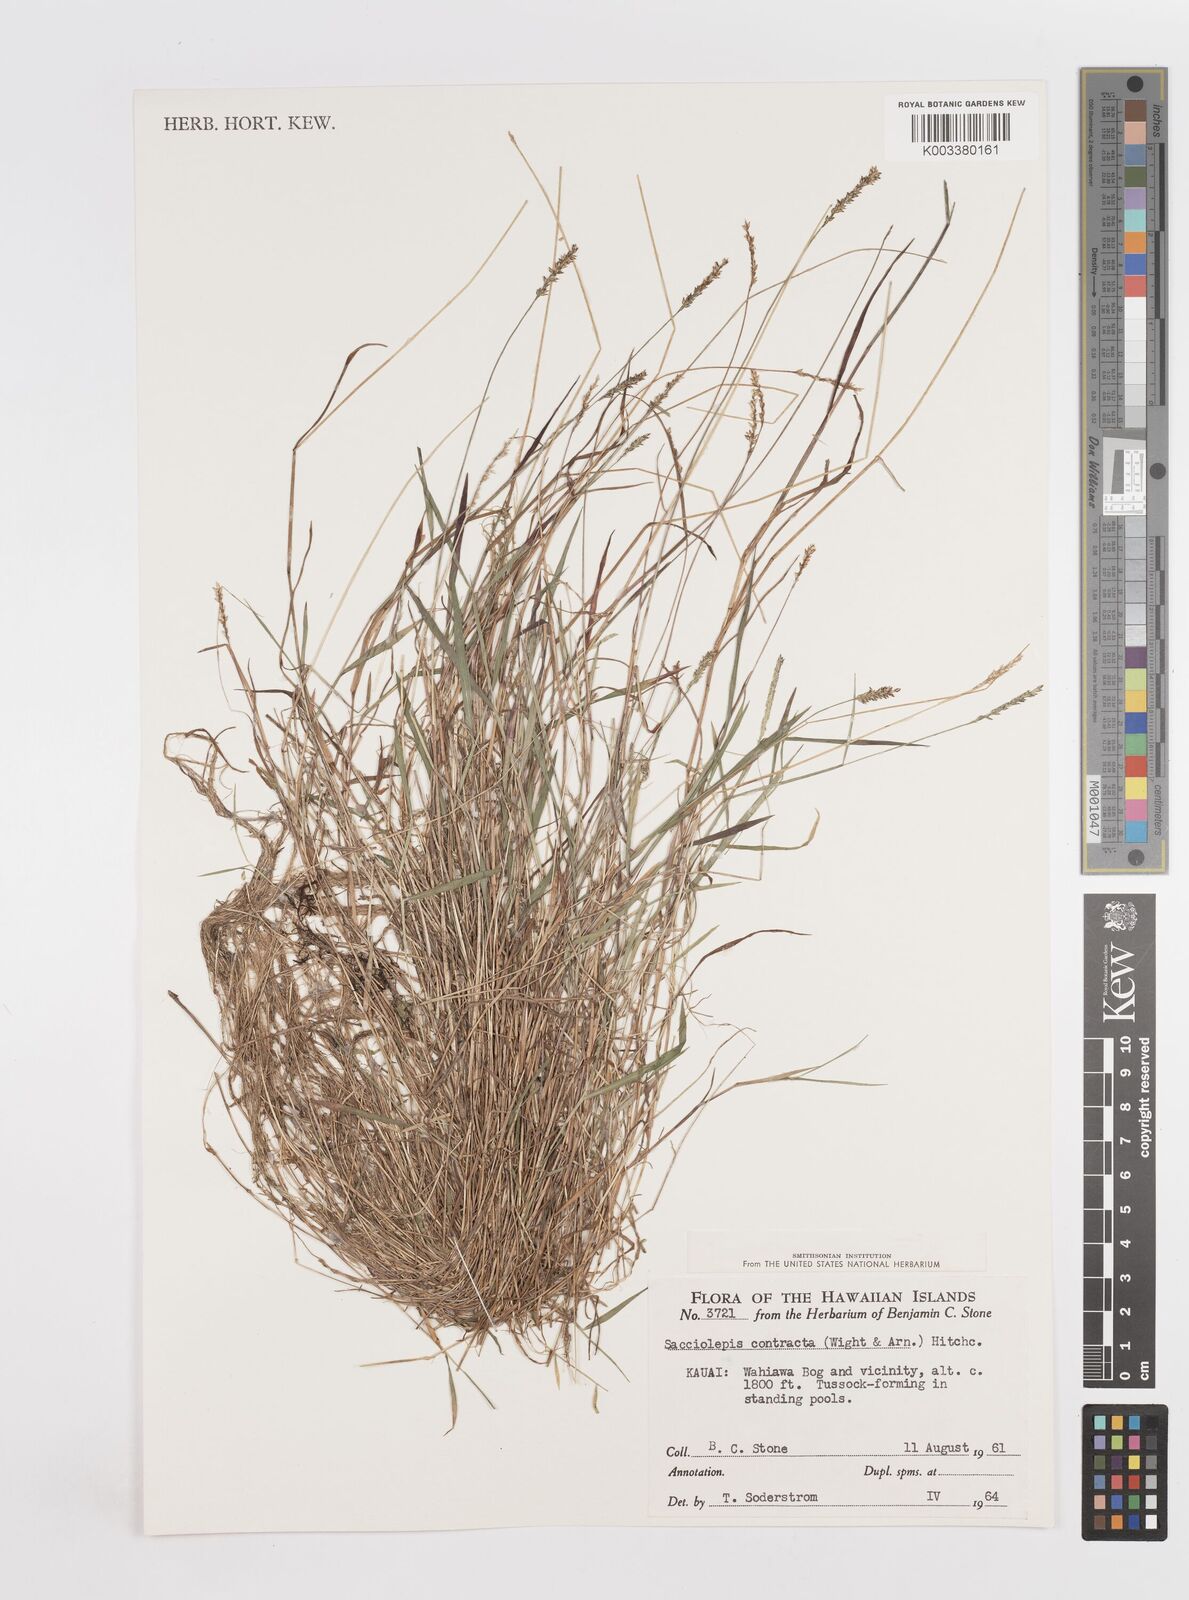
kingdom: Plantae
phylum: Tracheophyta
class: Liliopsida
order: Poales
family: Poaceae
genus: Sacciolepis
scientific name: Sacciolepis indica
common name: Glenwoodgrass
